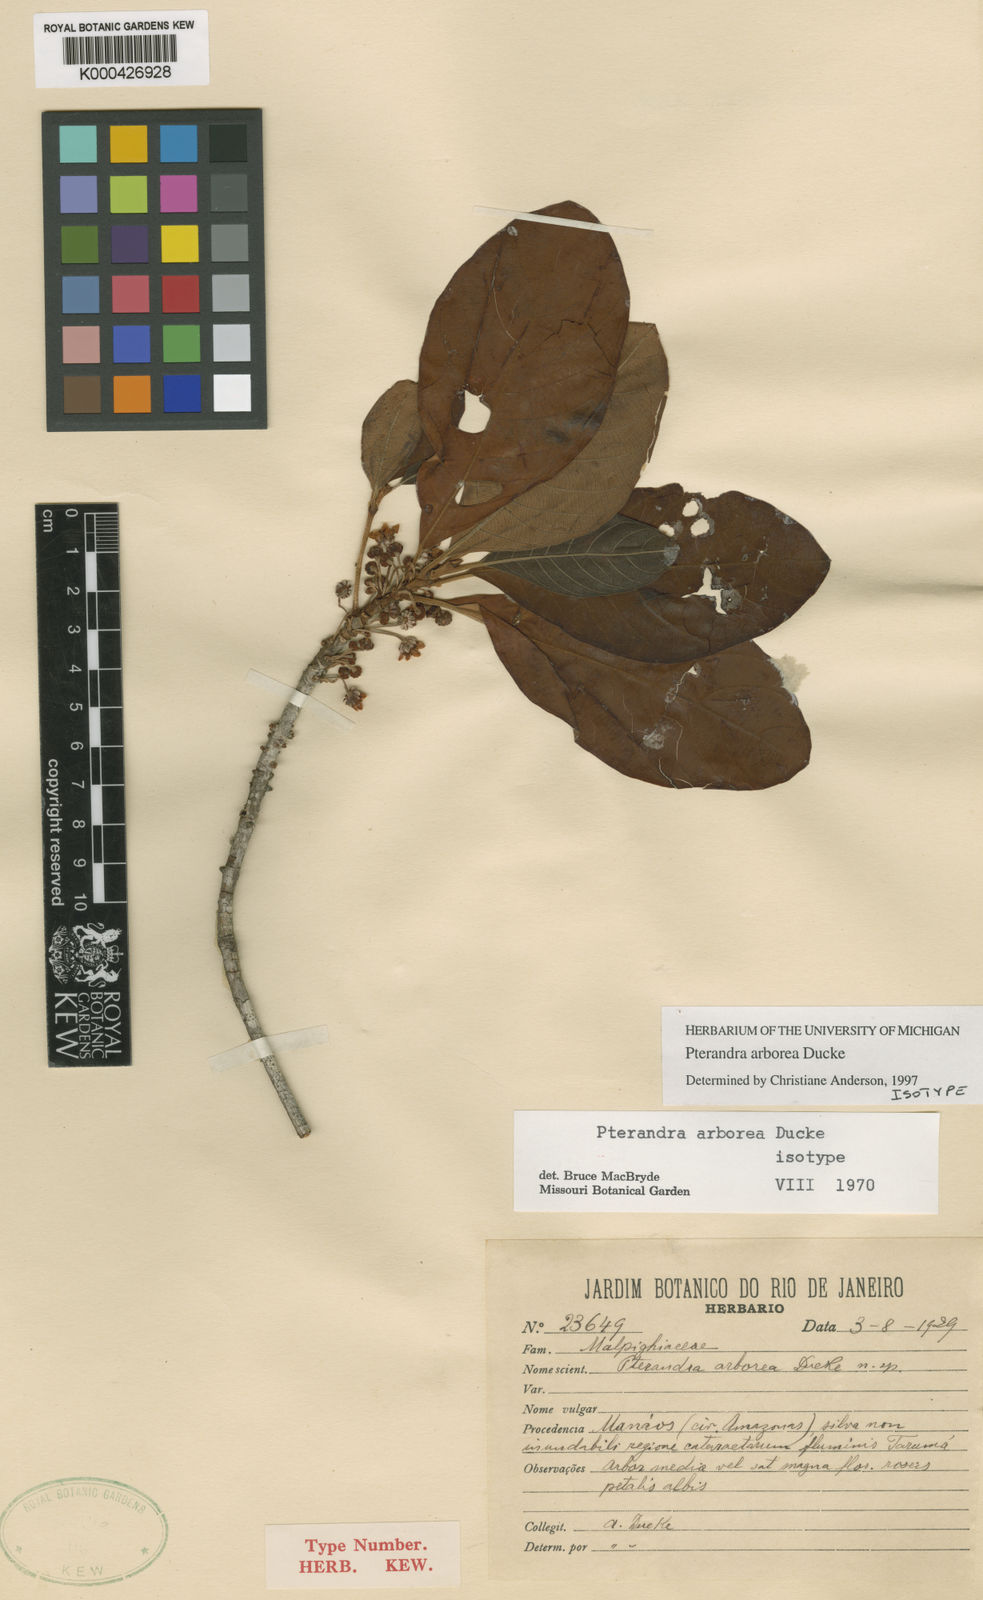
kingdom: Plantae
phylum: Tracheophyta
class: Magnoliopsida
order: Malpighiales
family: Malpighiaceae
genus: Pterandra
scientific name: Pterandra arborea
